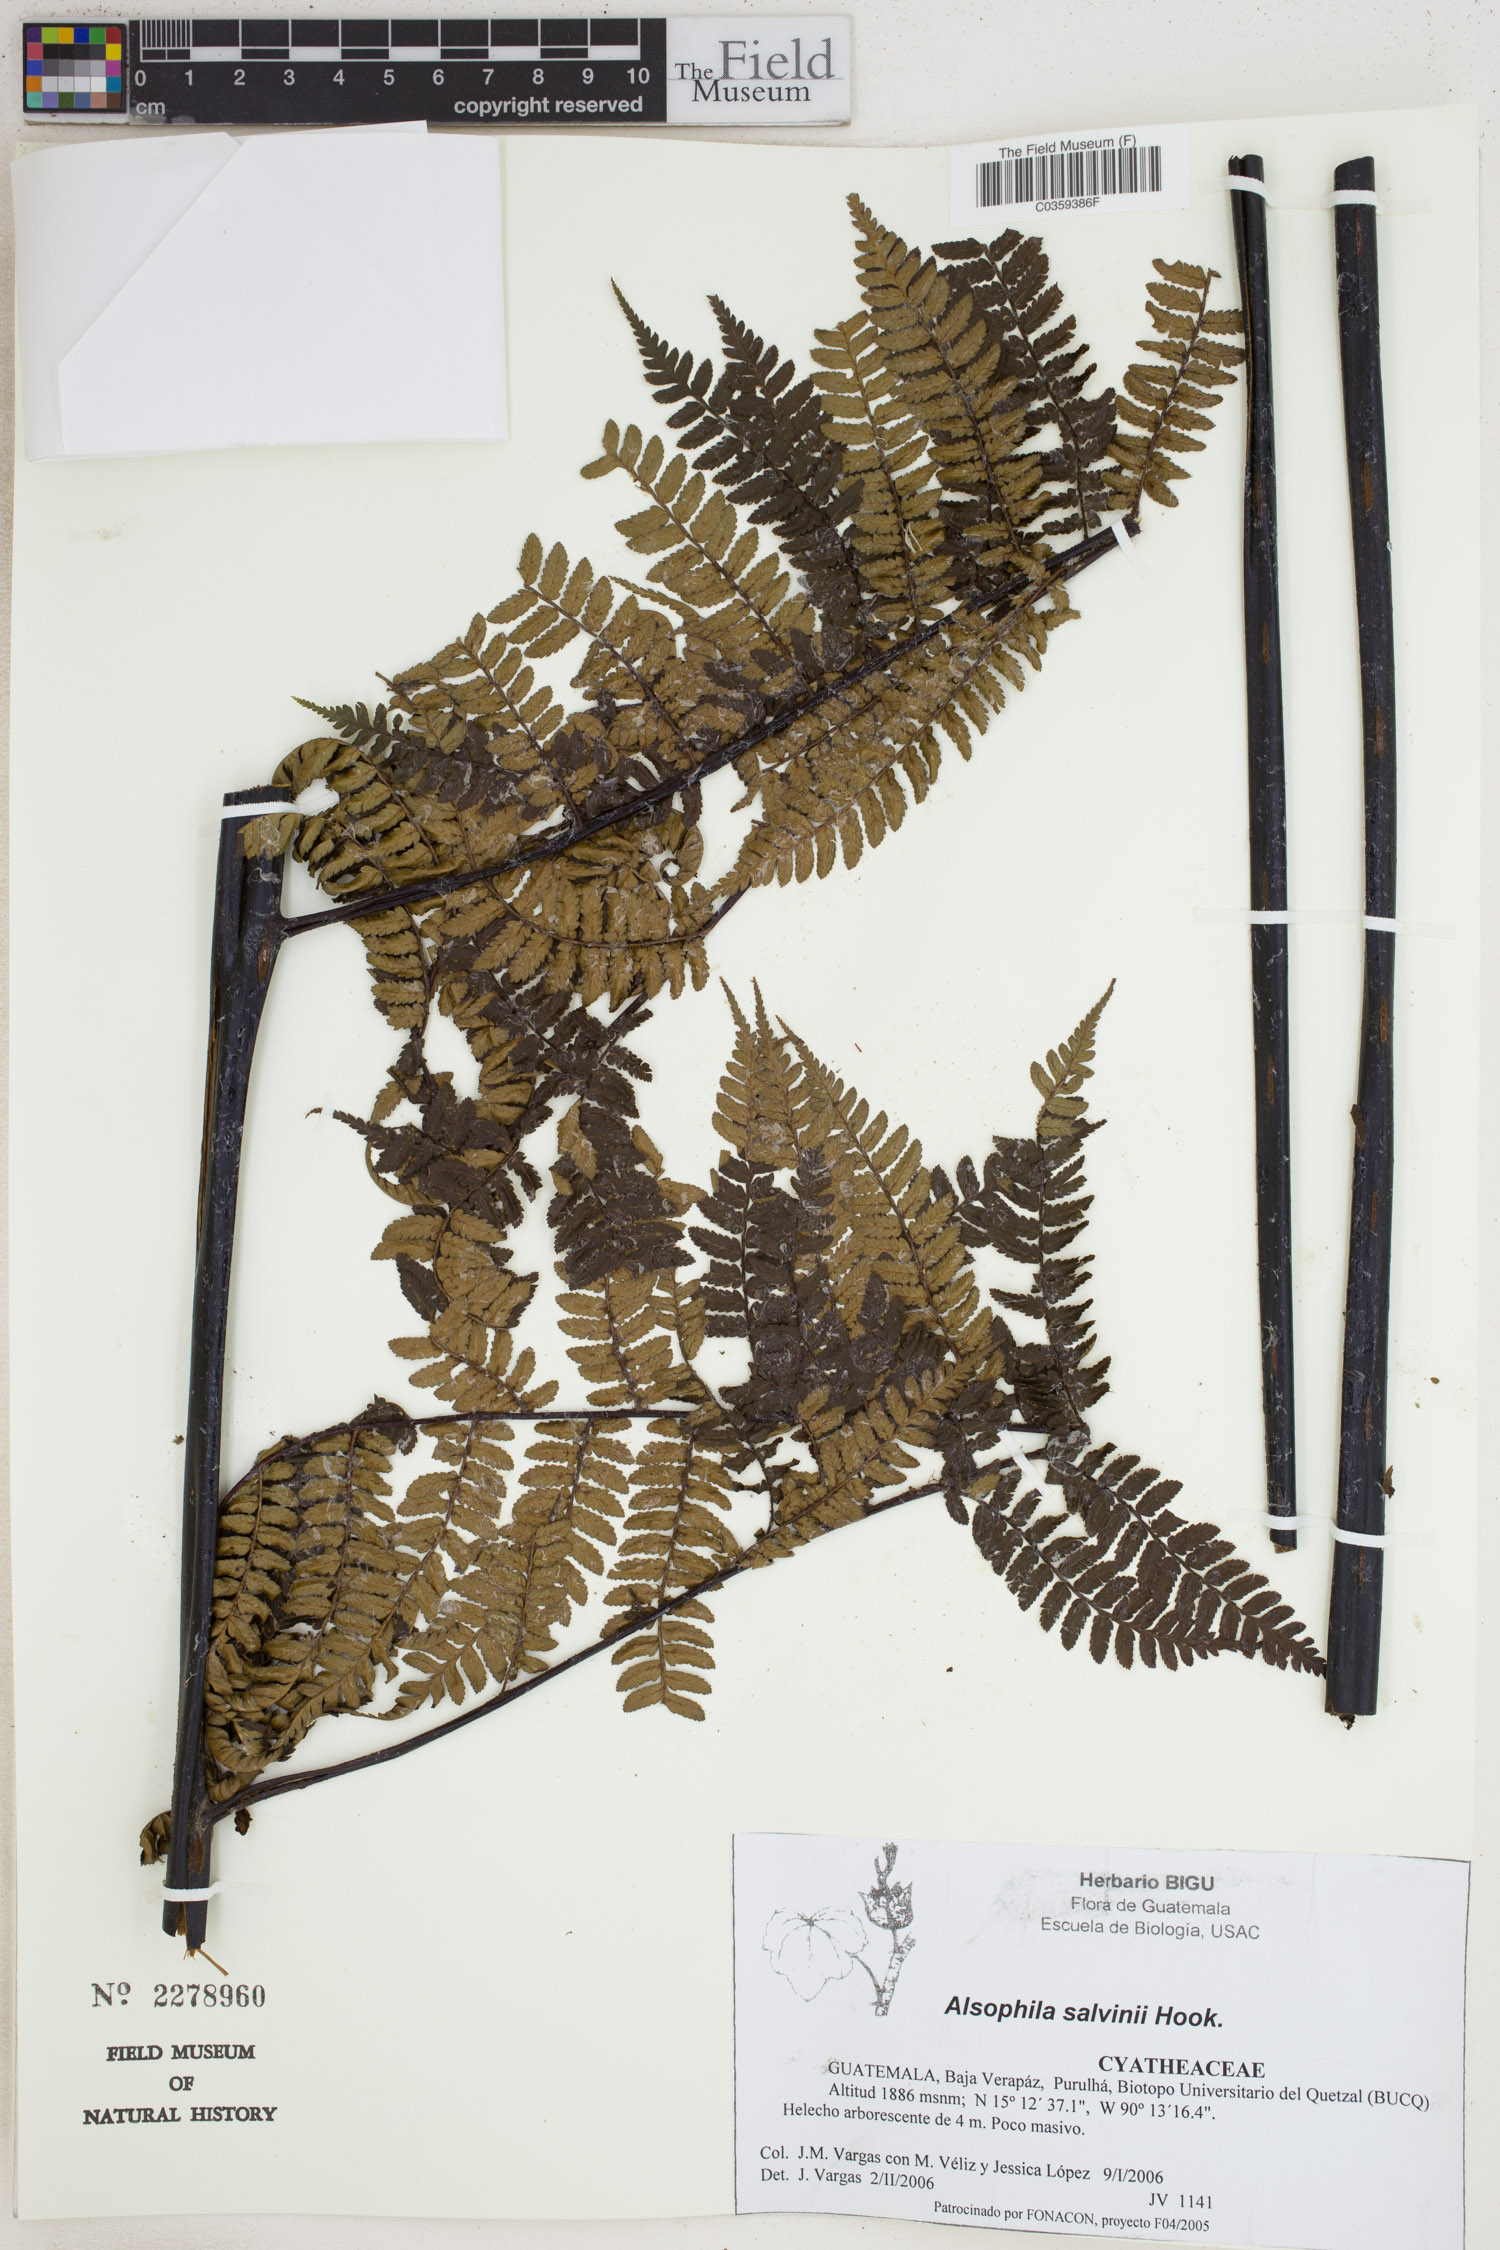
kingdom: Plantae
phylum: Tracheophyta
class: Polypodiopsida
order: Cyatheales
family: Cyatheaceae
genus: Gymnosphaera
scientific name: Gymnosphaera salvinii
